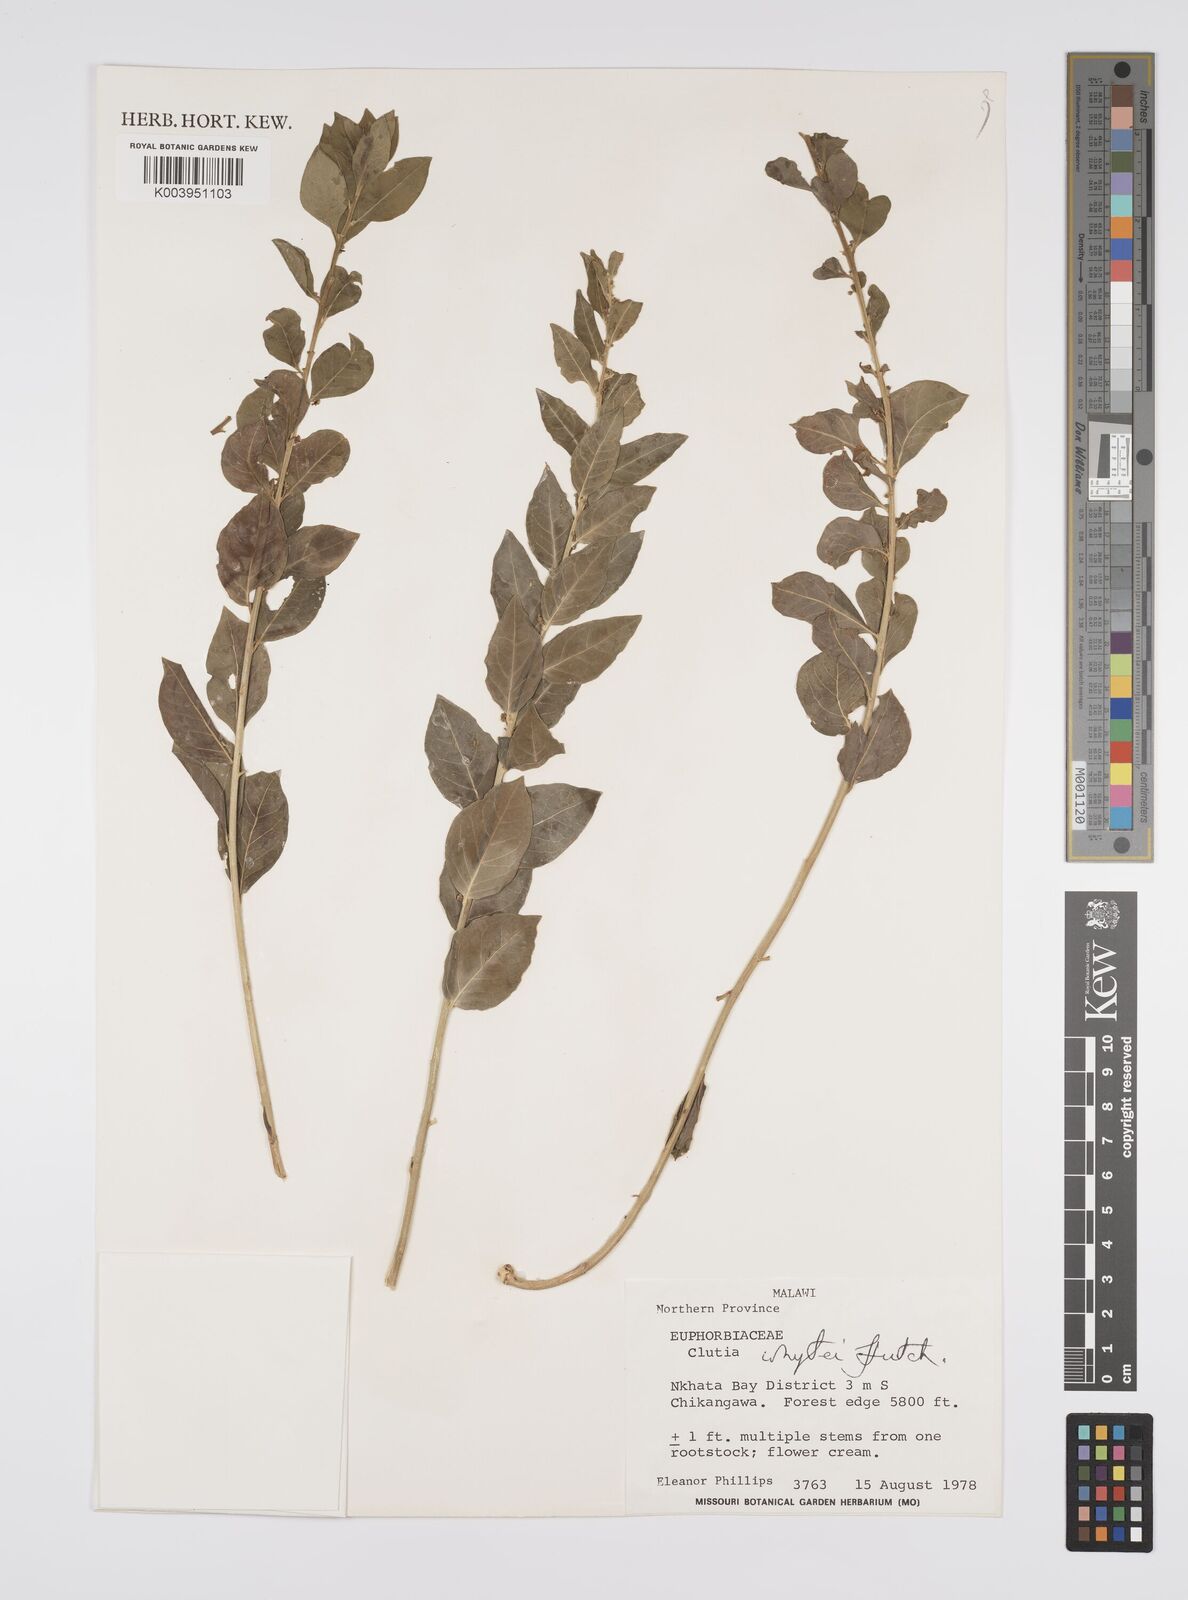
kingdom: Plantae
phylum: Tracheophyta
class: Magnoliopsida
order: Malpighiales
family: Peraceae
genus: Clutia
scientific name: Clutia whytei
